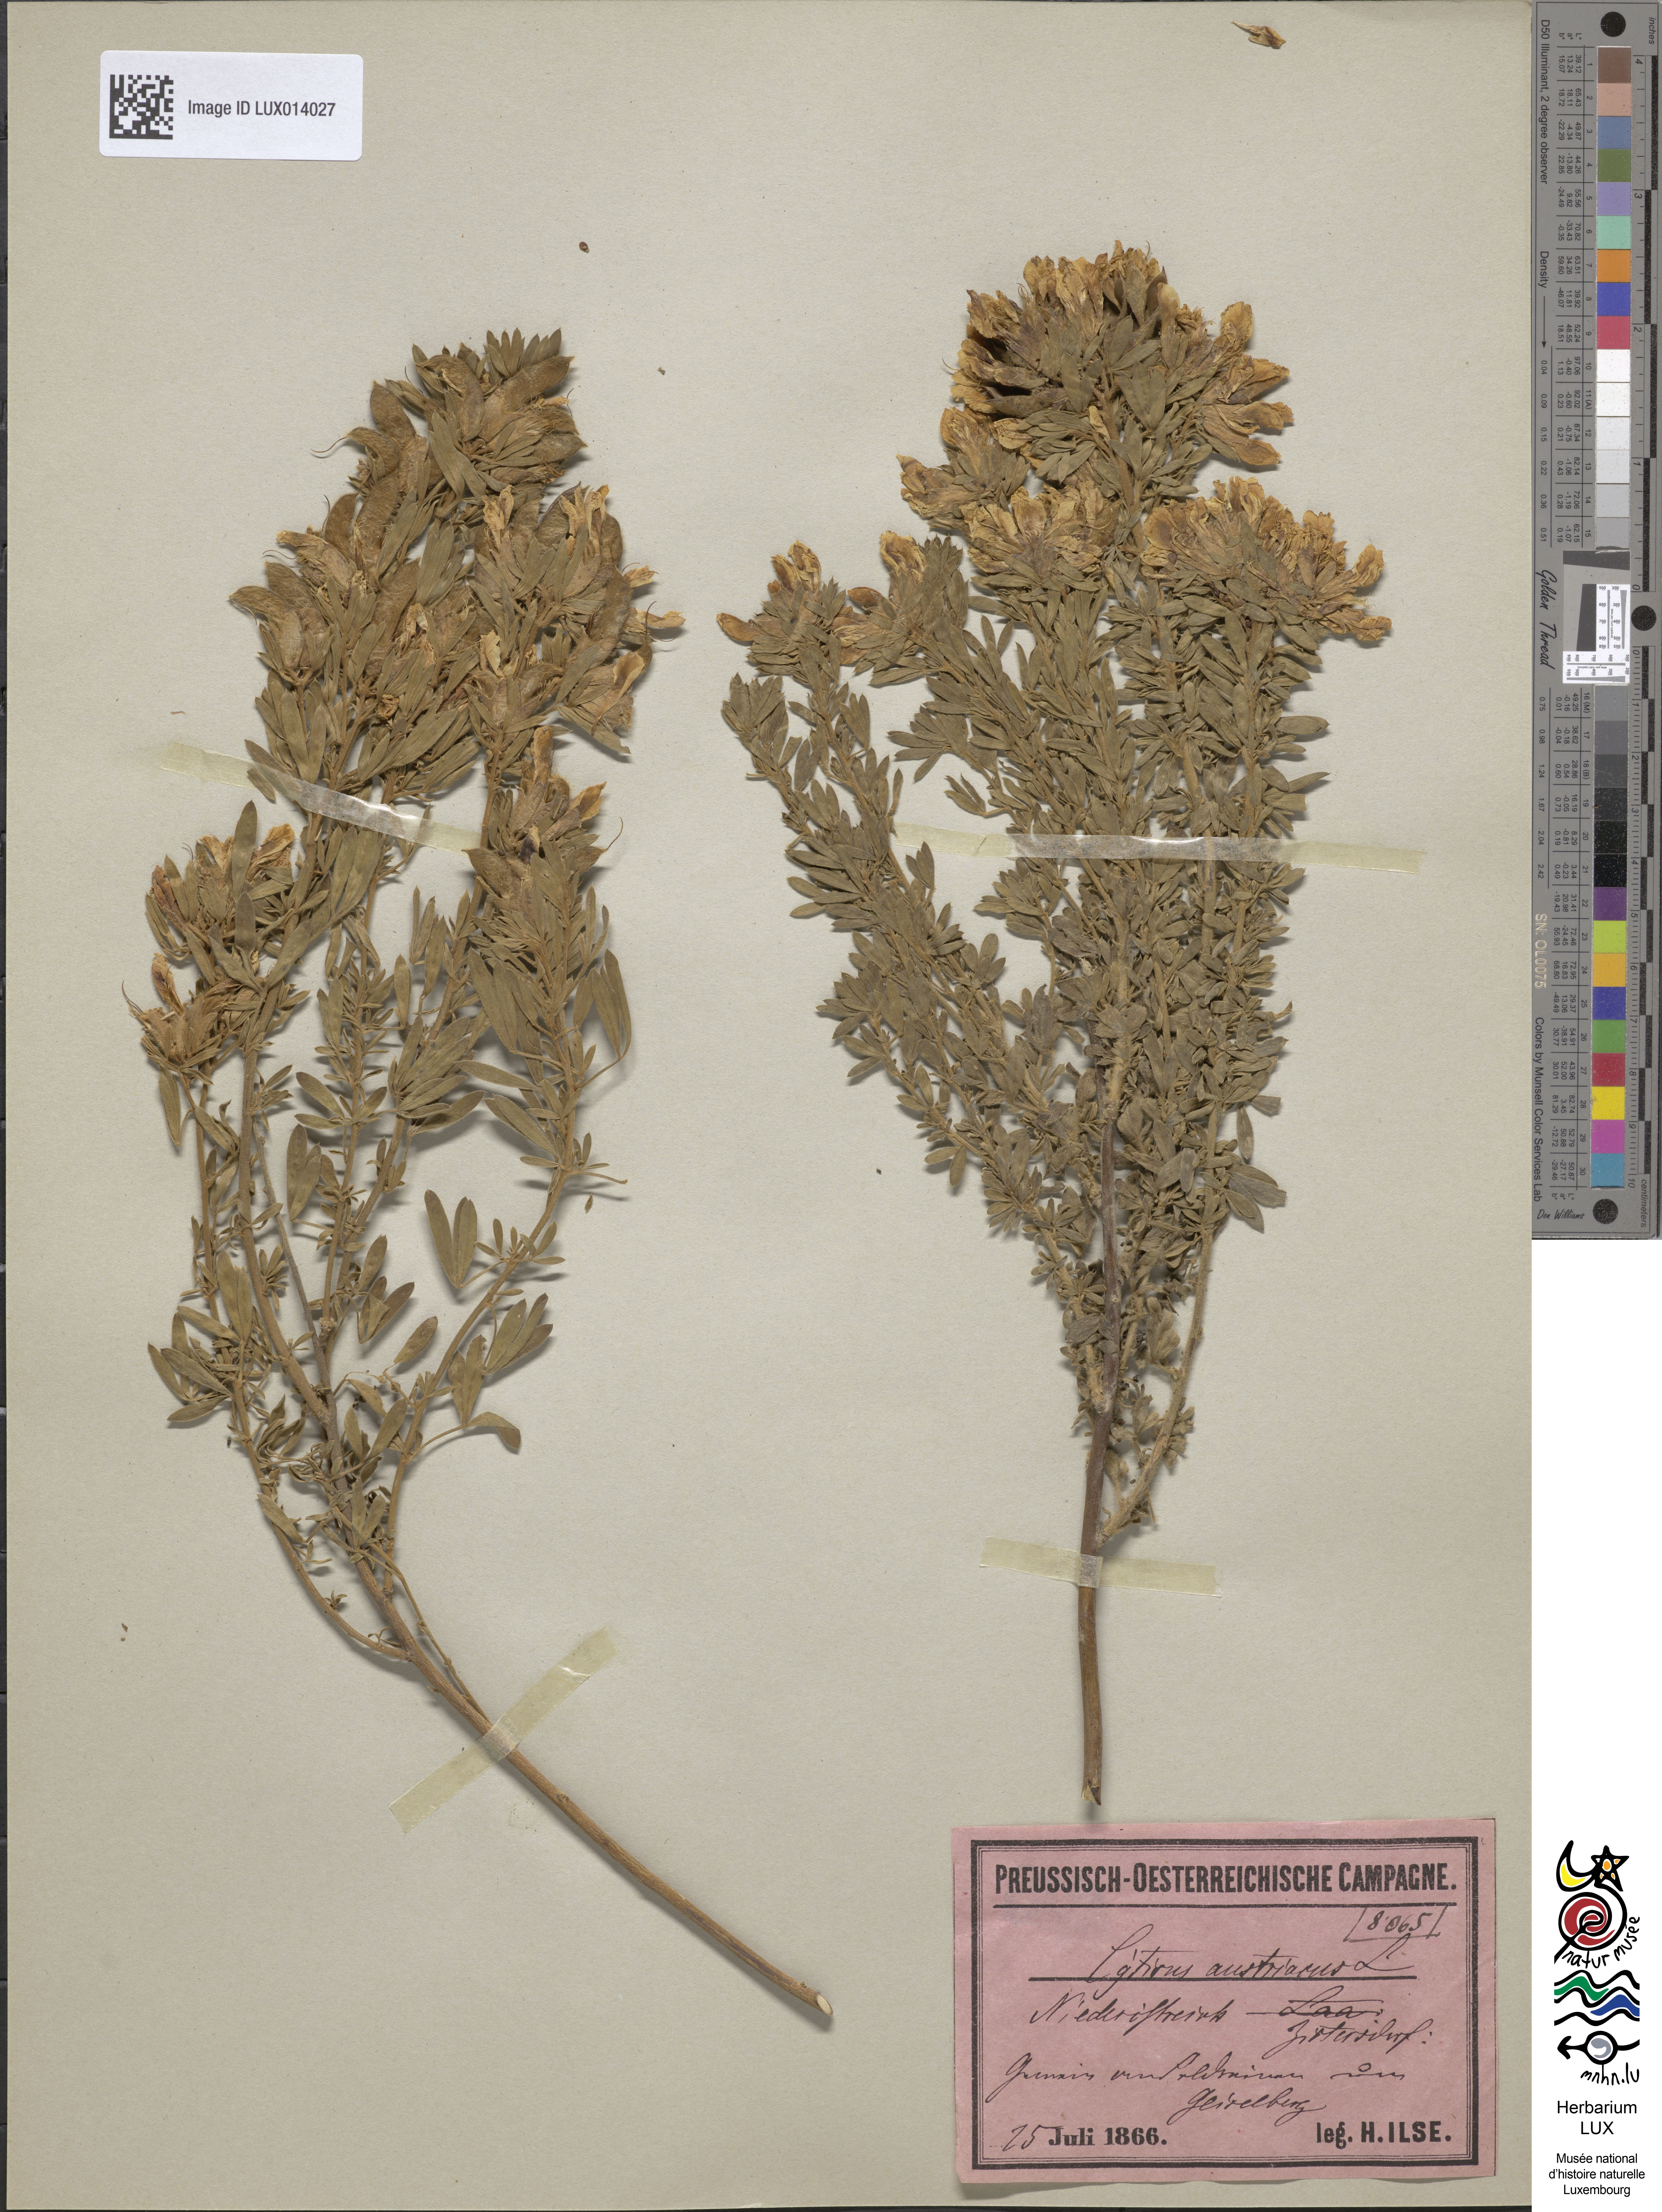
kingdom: Plantae
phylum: Tracheophyta
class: Magnoliopsida
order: Fabales
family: Fabaceae
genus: Chamaecytisus
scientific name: Chamaecytisus austriacus
